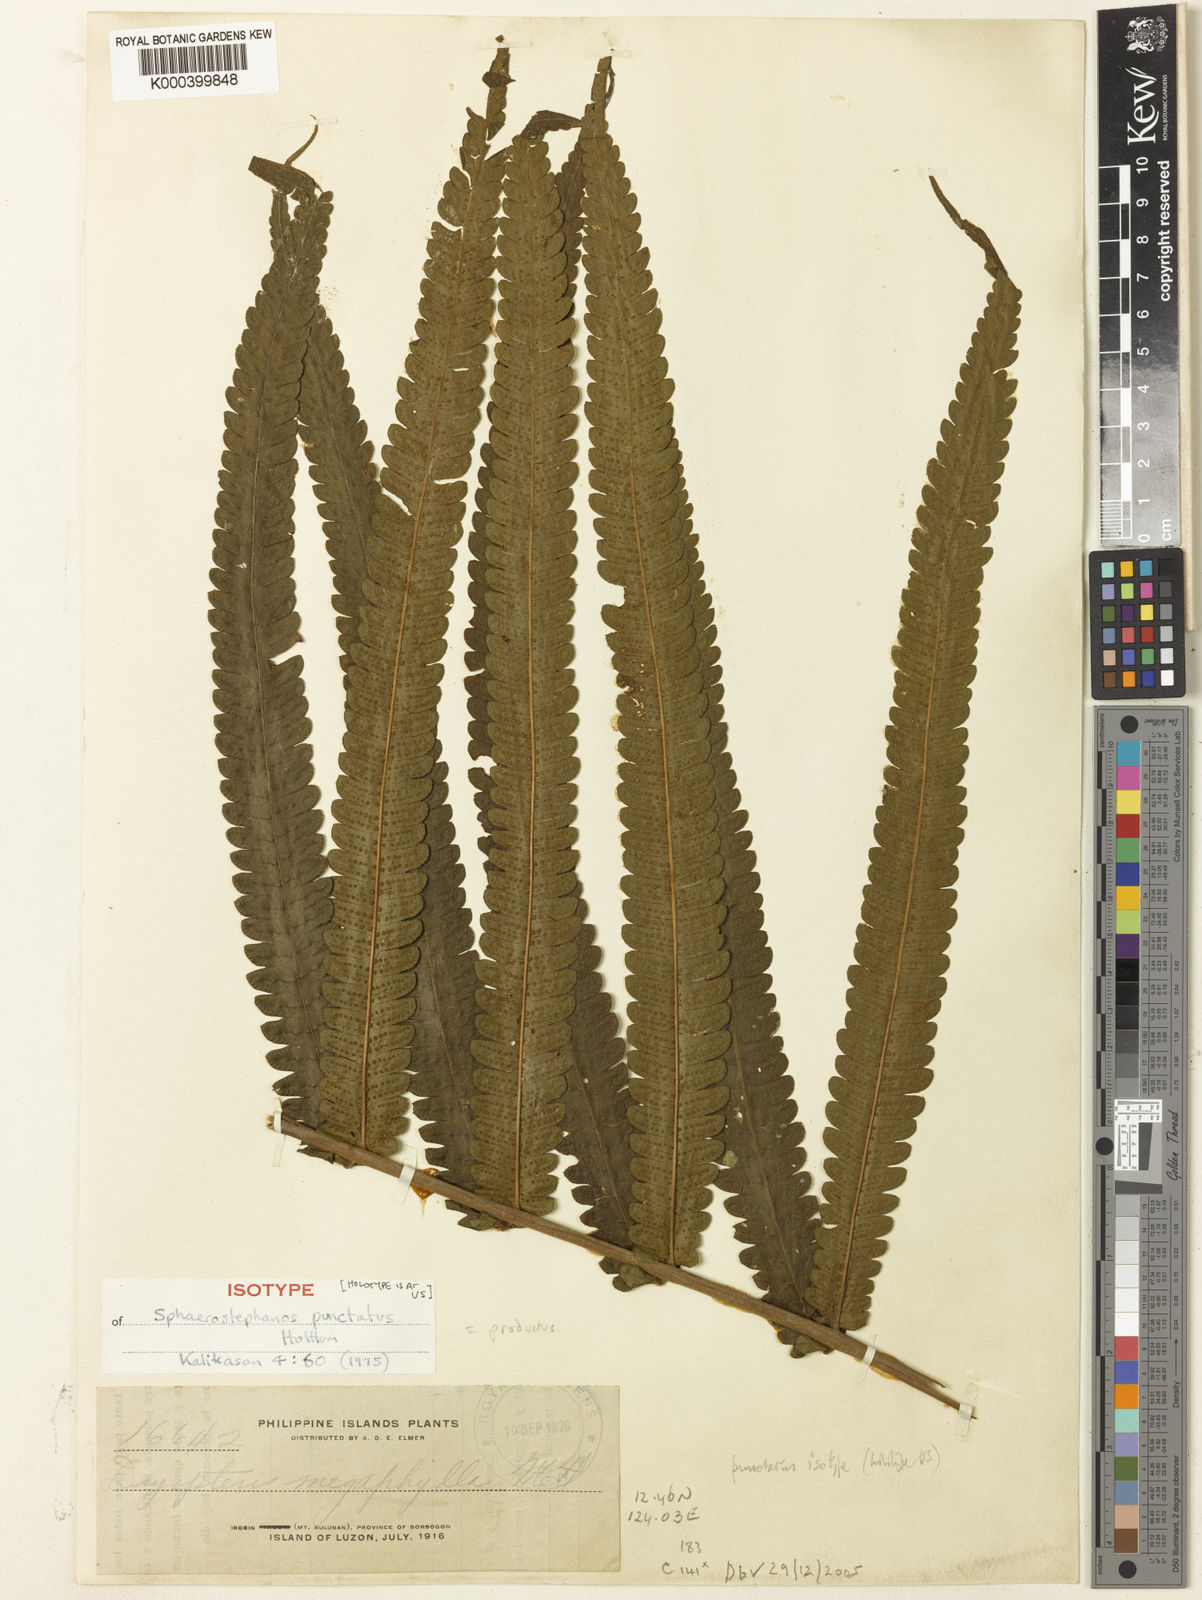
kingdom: Plantae
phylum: Tracheophyta
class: Polypodiopsida
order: Polypodiales
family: Thelypteridaceae
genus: Sphaerostephanos
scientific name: Sphaerostephanos productus
